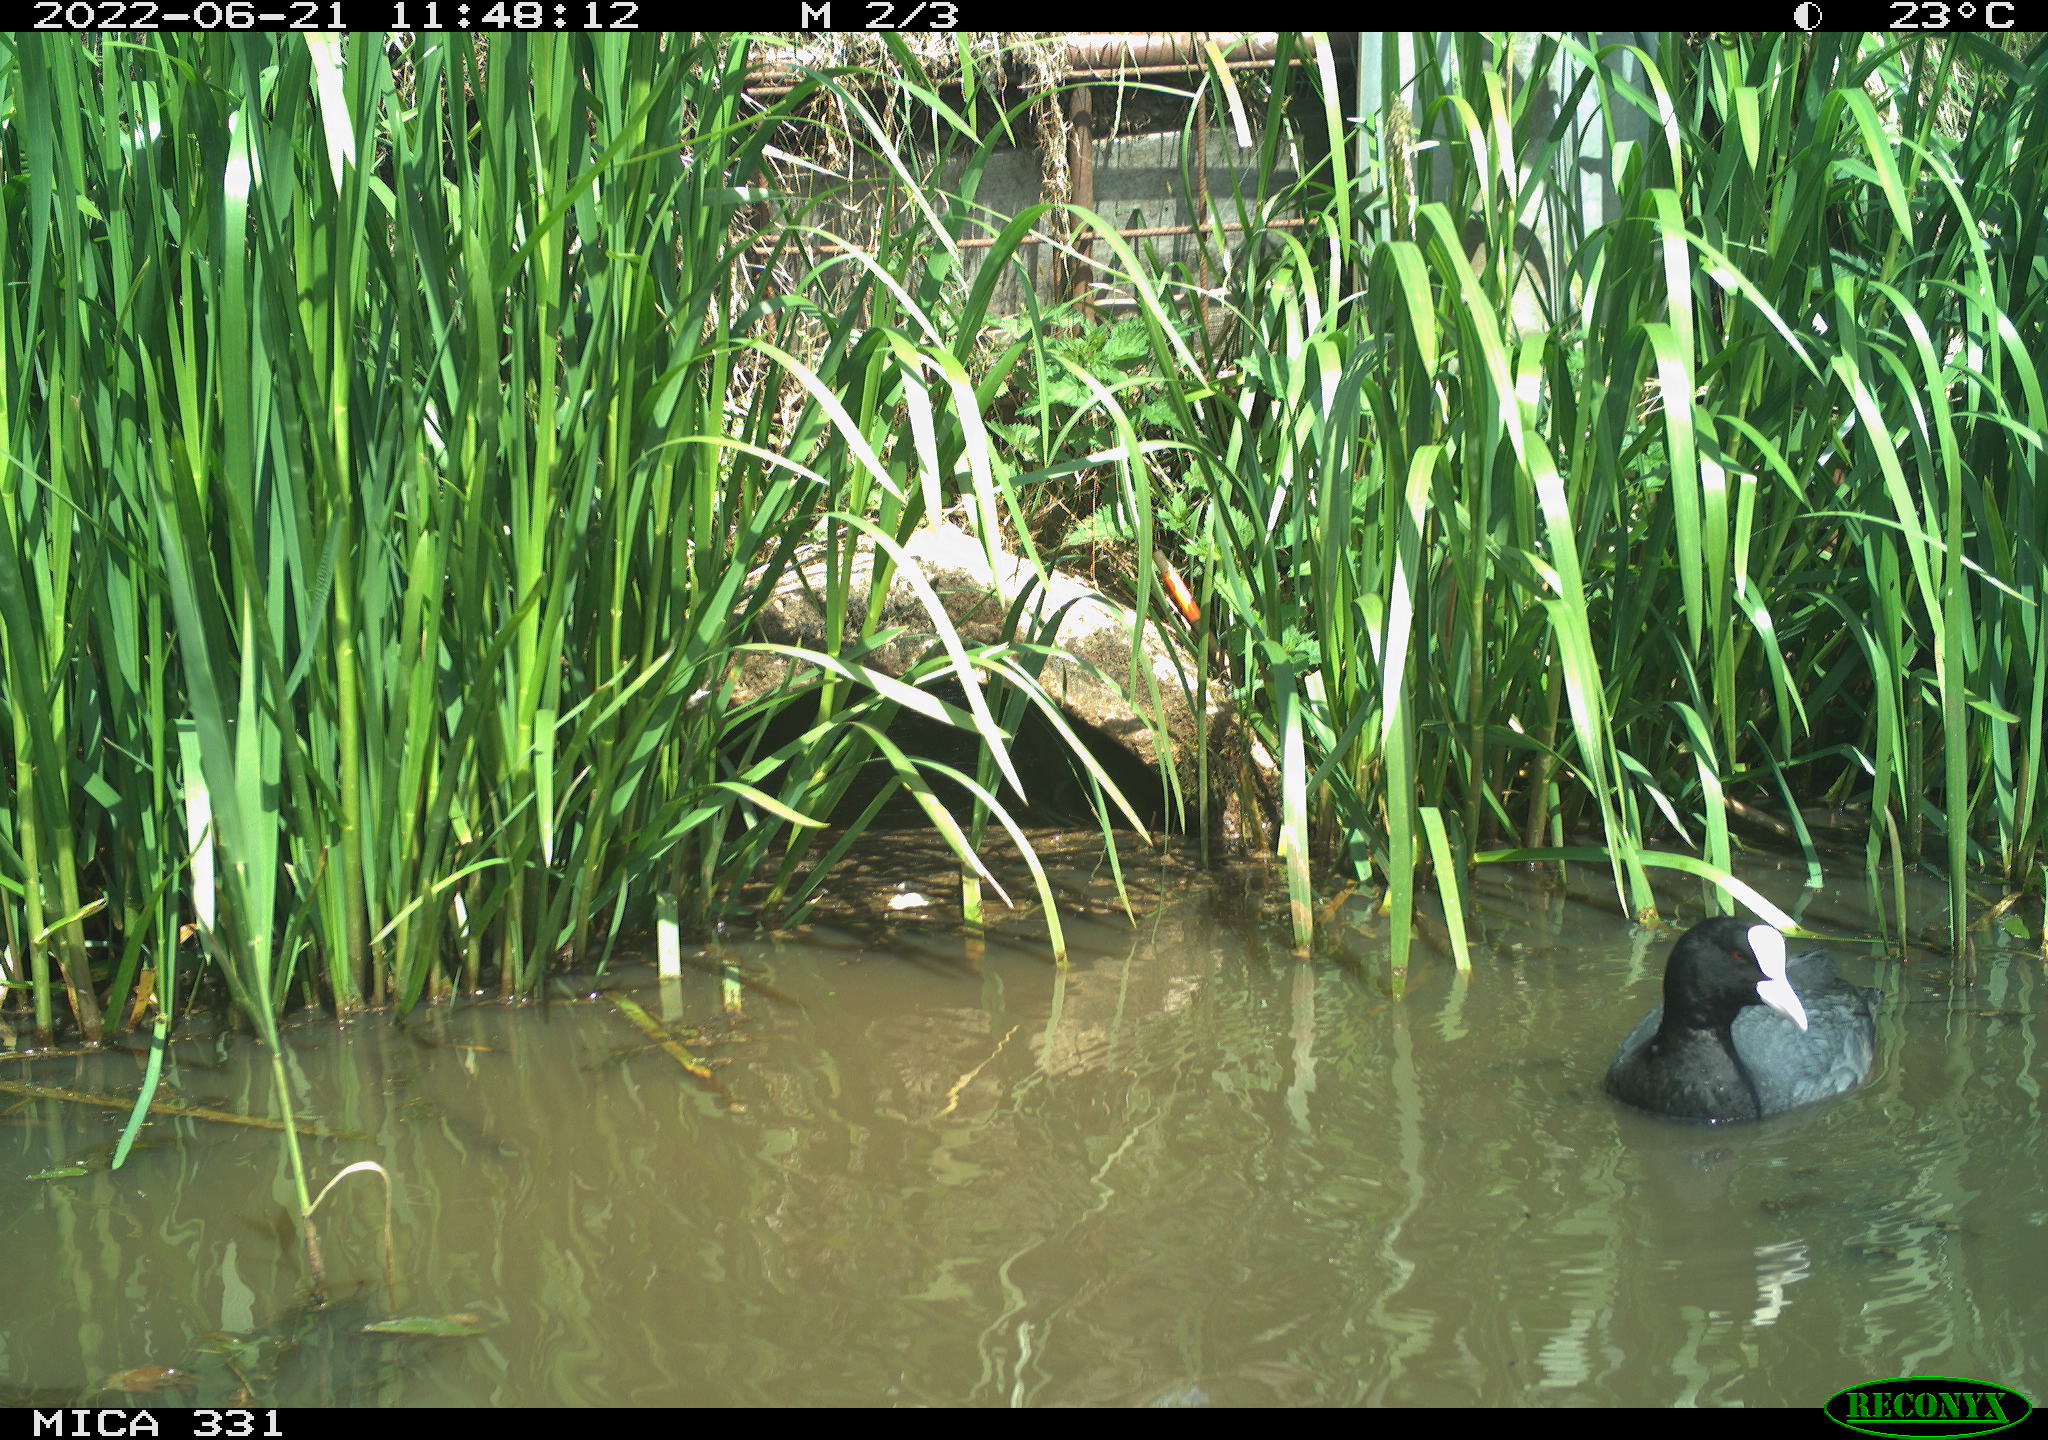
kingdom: Animalia
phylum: Chordata
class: Aves
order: Gruiformes
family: Rallidae
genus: Fulica
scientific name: Fulica atra
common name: Eurasian coot
